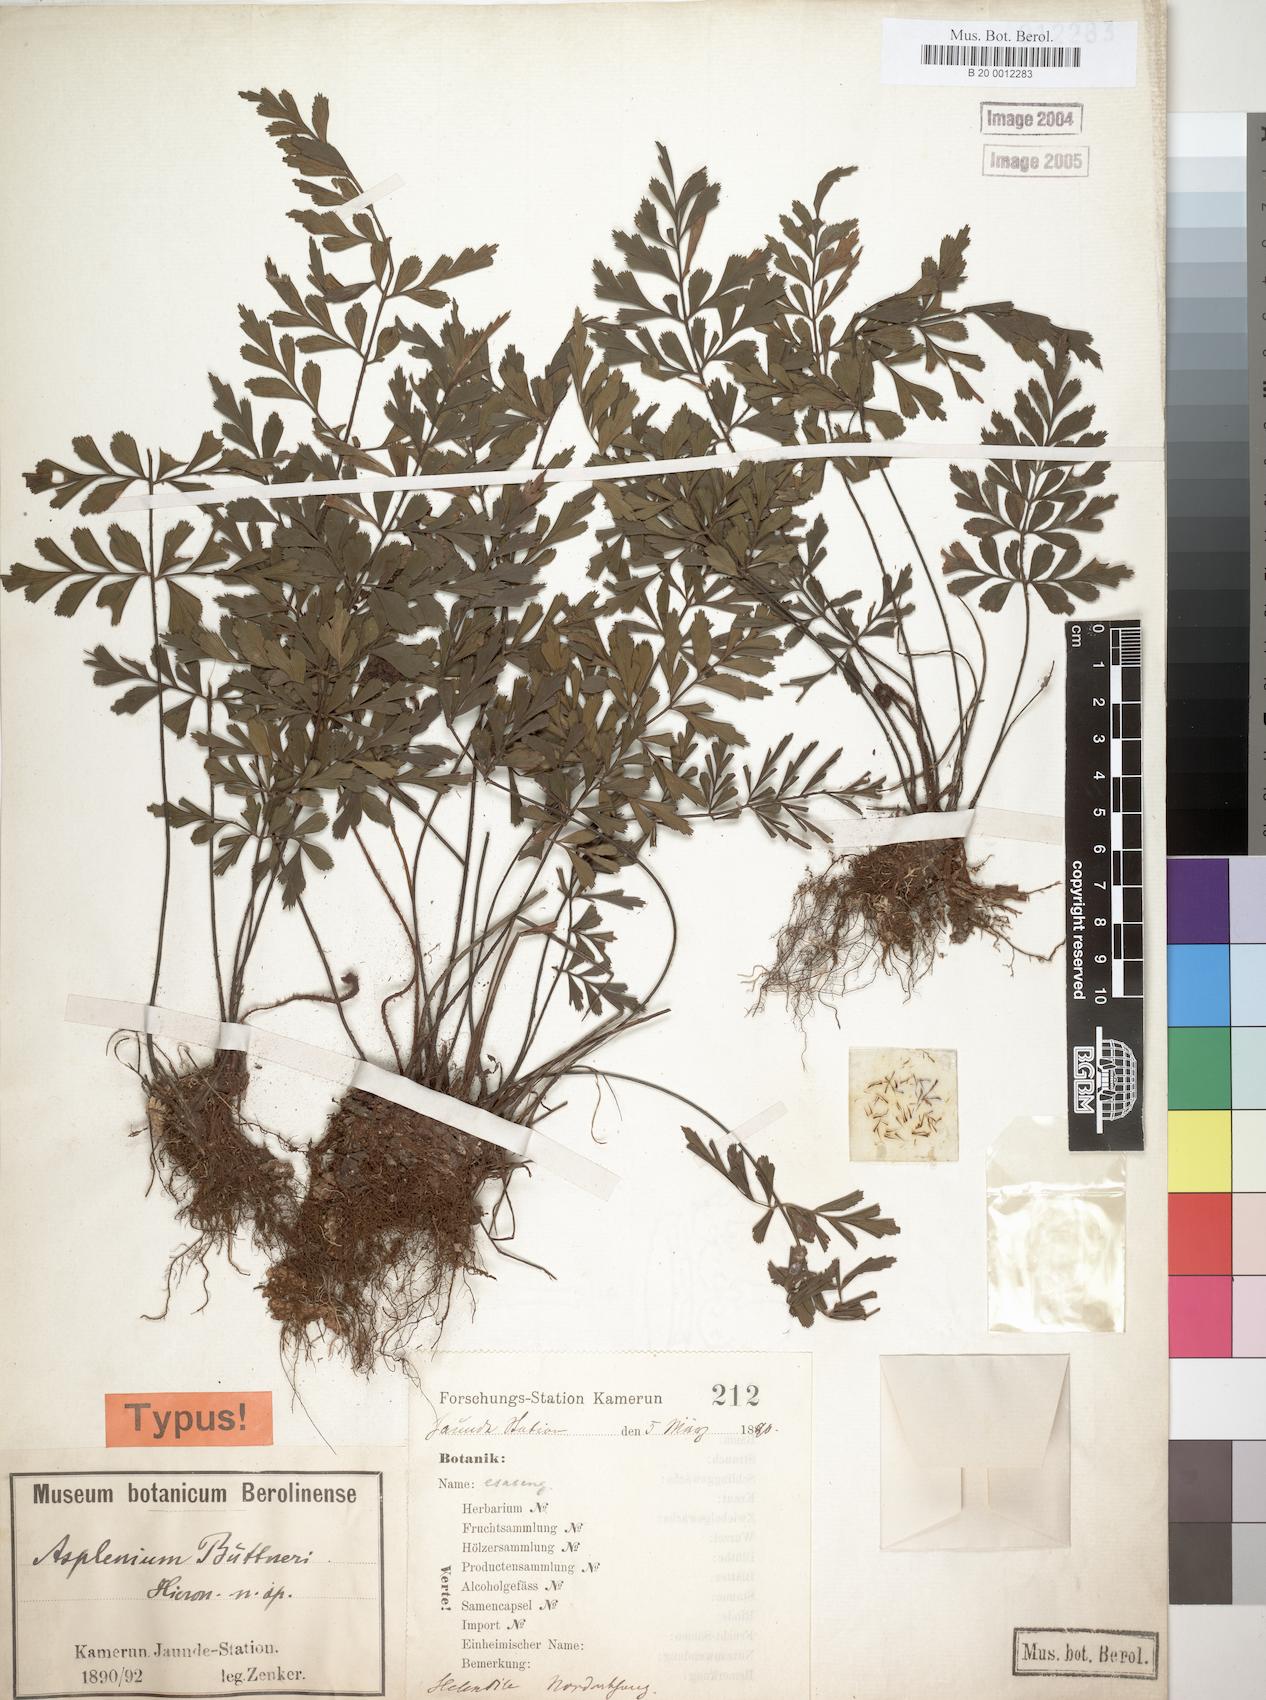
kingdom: Plantae
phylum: Tracheophyta
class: Polypodiopsida
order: Polypodiales
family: Aspleniaceae
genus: Asplenium
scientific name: Asplenium buettneri
